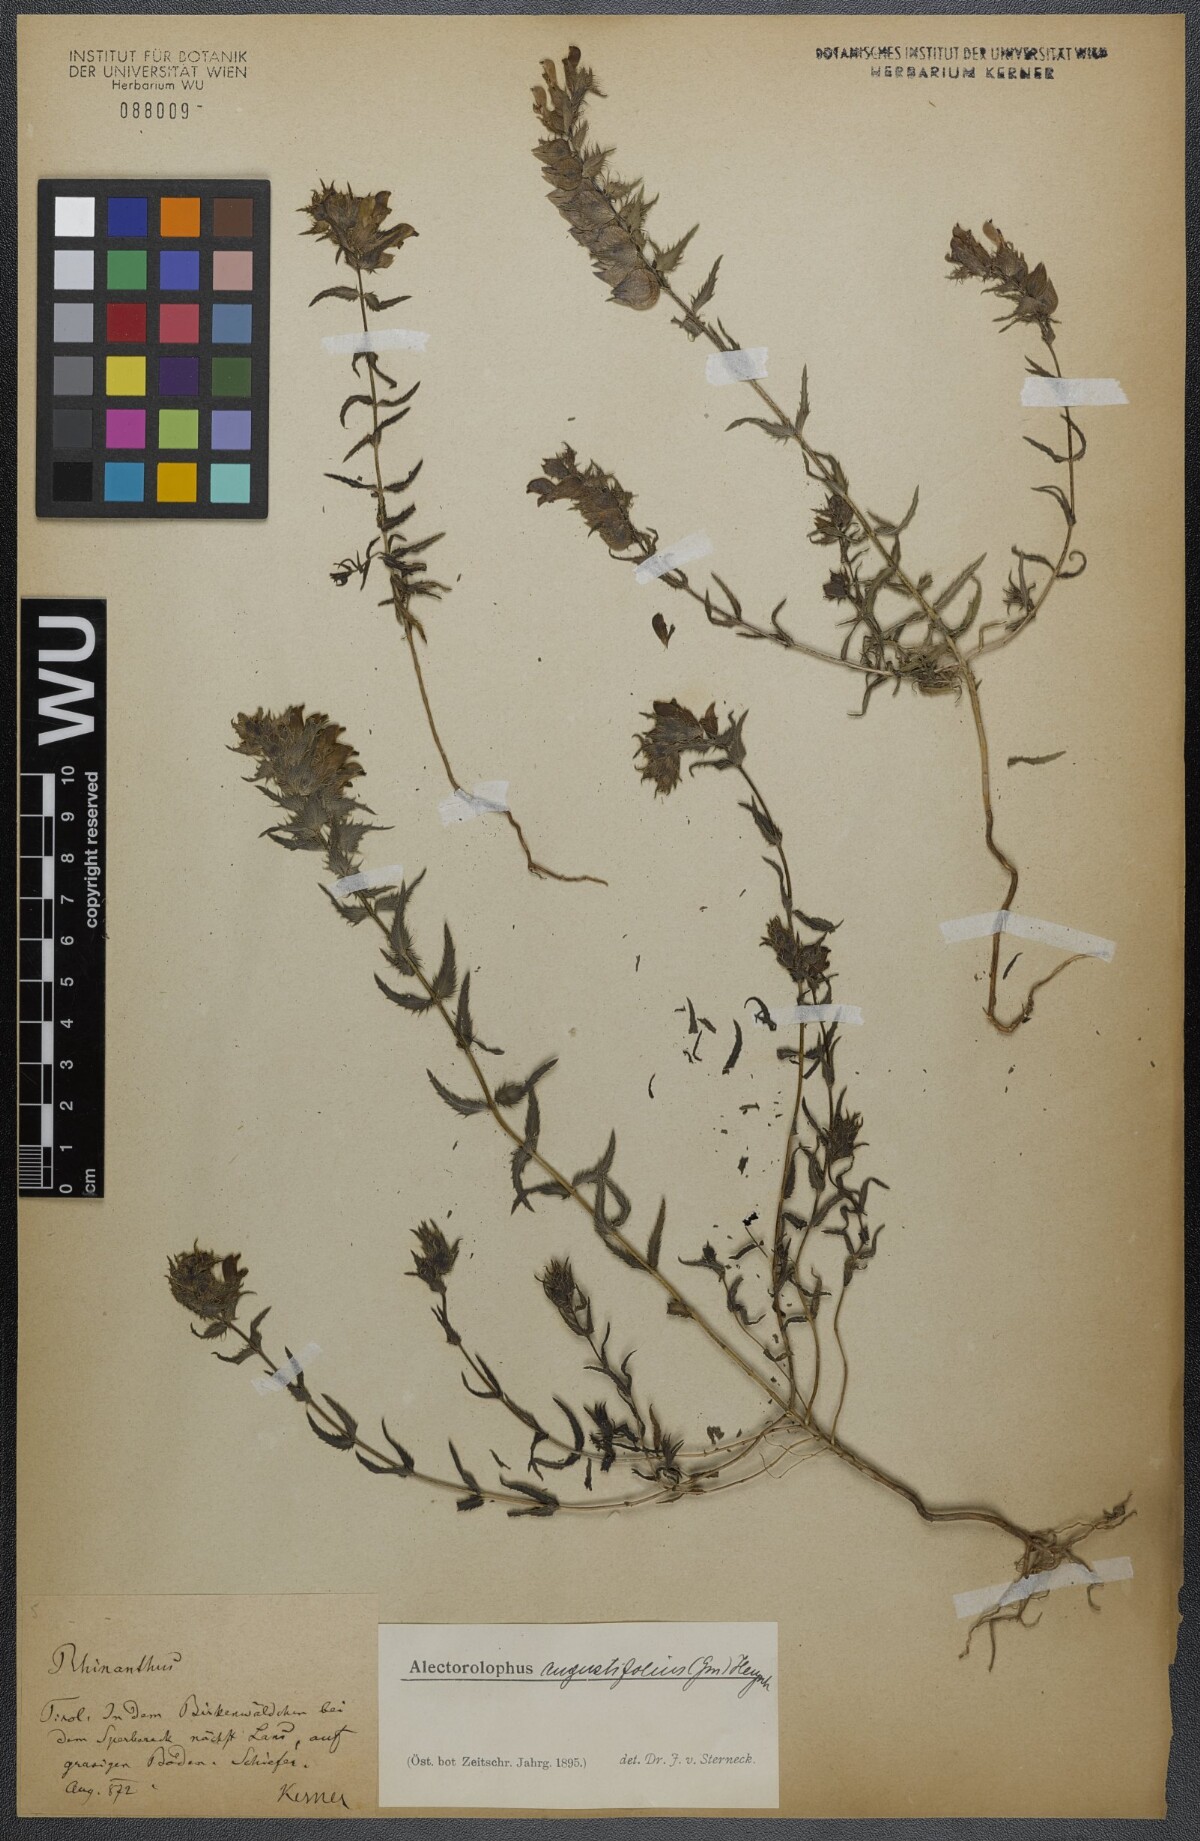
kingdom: Plantae
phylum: Tracheophyta
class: Magnoliopsida
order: Lamiales
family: Orobanchaceae
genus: Rhinanthus
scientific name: Rhinanthus
